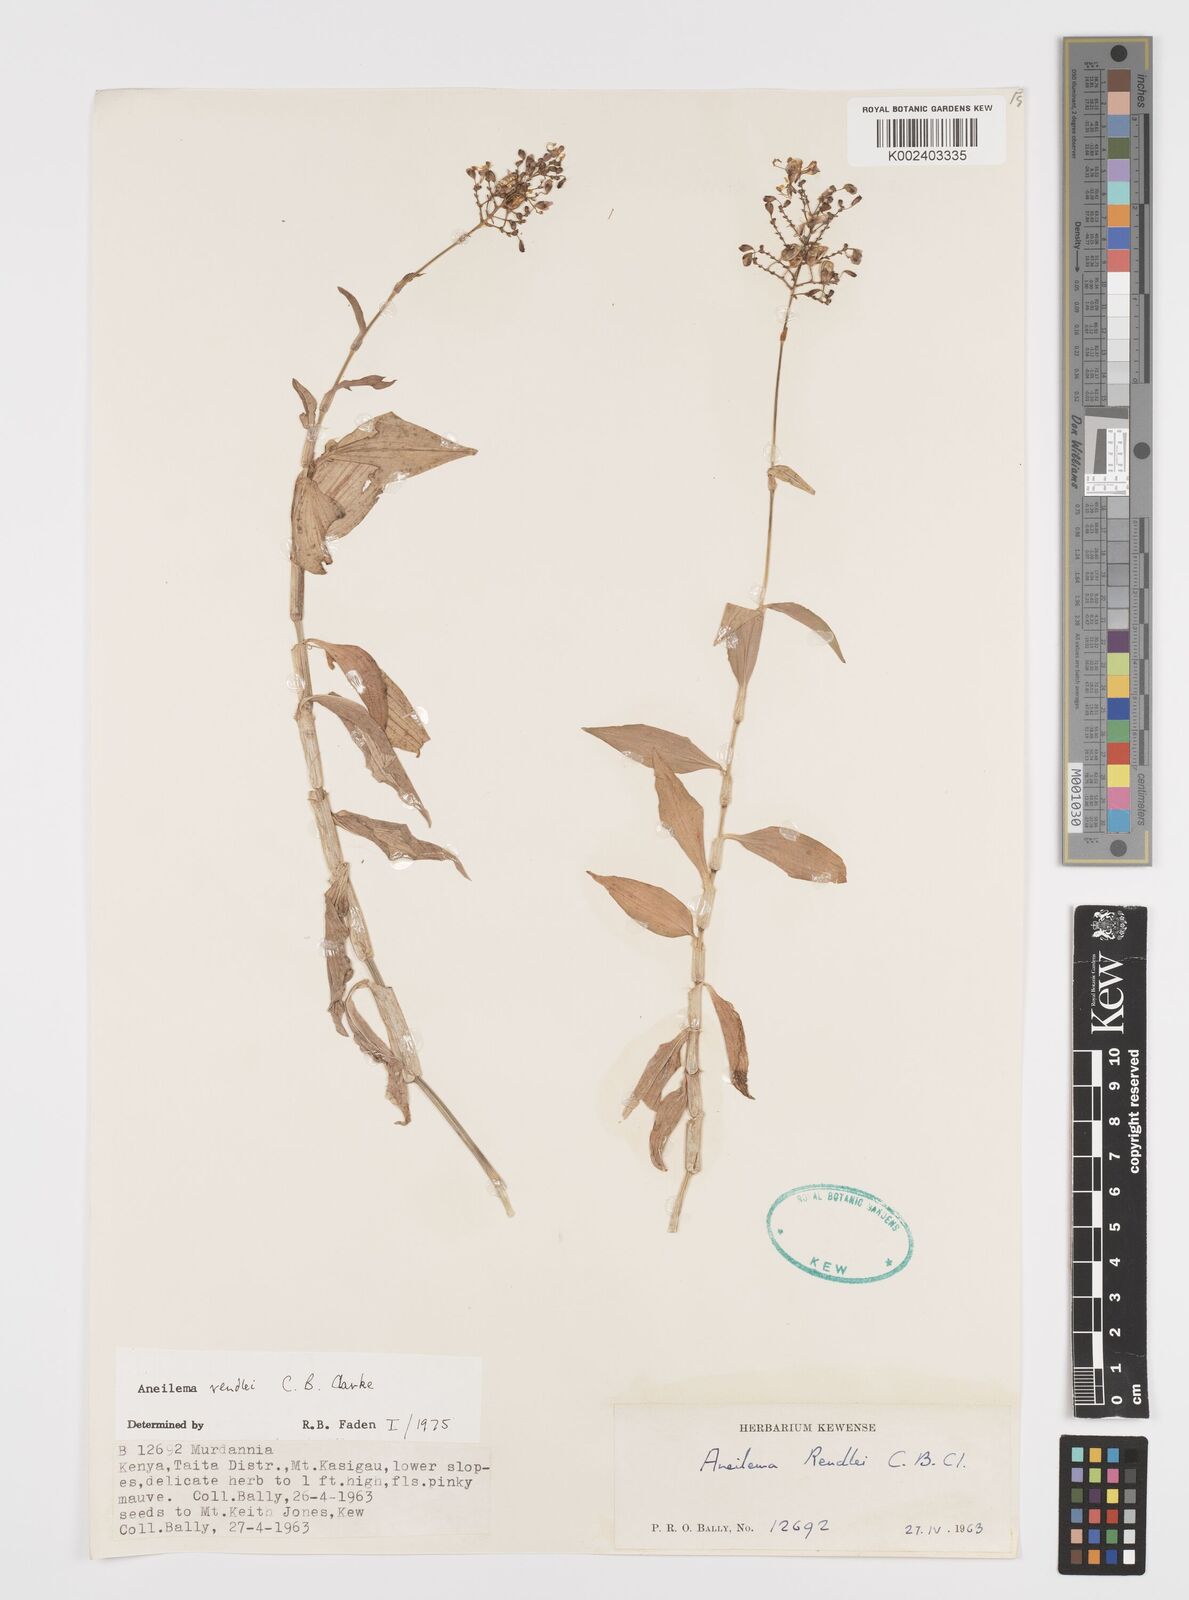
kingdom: Plantae
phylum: Tracheophyta
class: Liliopsida
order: Commelinales
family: Commelinaceae
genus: Aneilema
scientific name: Aneilema rendlei
